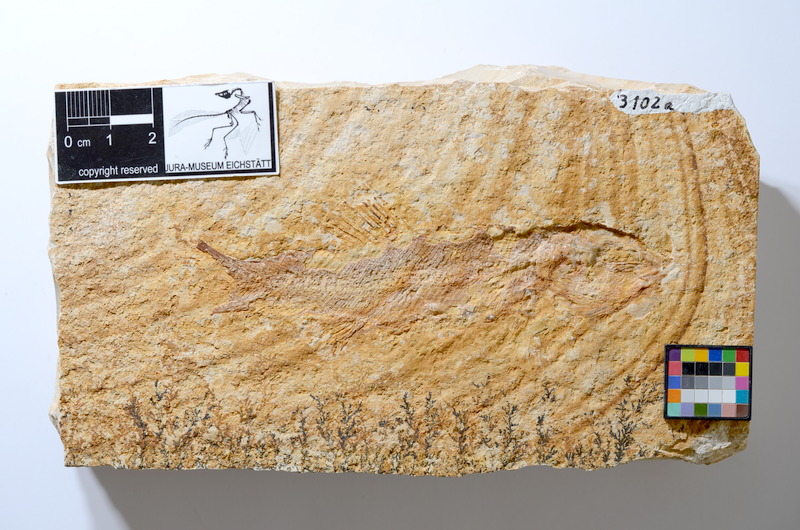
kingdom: Animalia
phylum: Chordata
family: Ophiopsiellidae
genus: Furo
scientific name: Furo longiserratus
